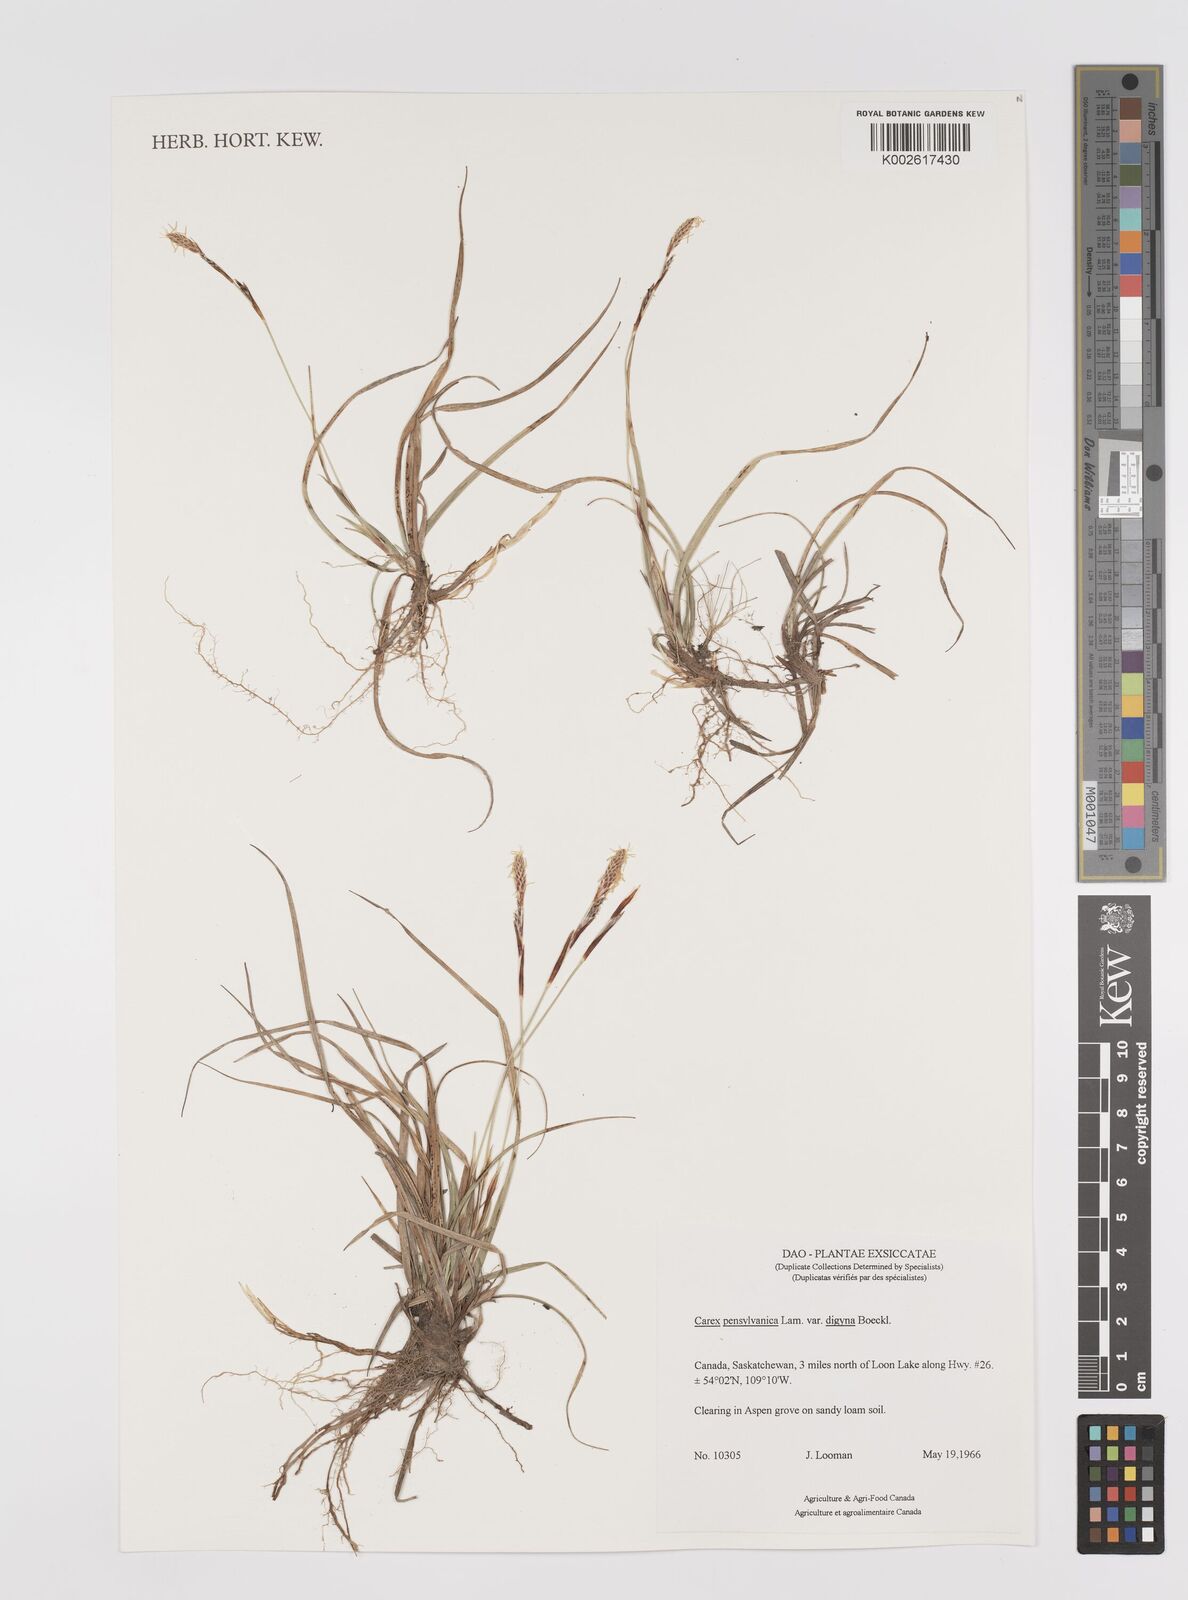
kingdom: Plantae
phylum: Tracheophyta
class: Liliopsida
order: Poales
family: Cyperaceae
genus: Carex
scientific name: Carex inops
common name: Long-stolon sedge
